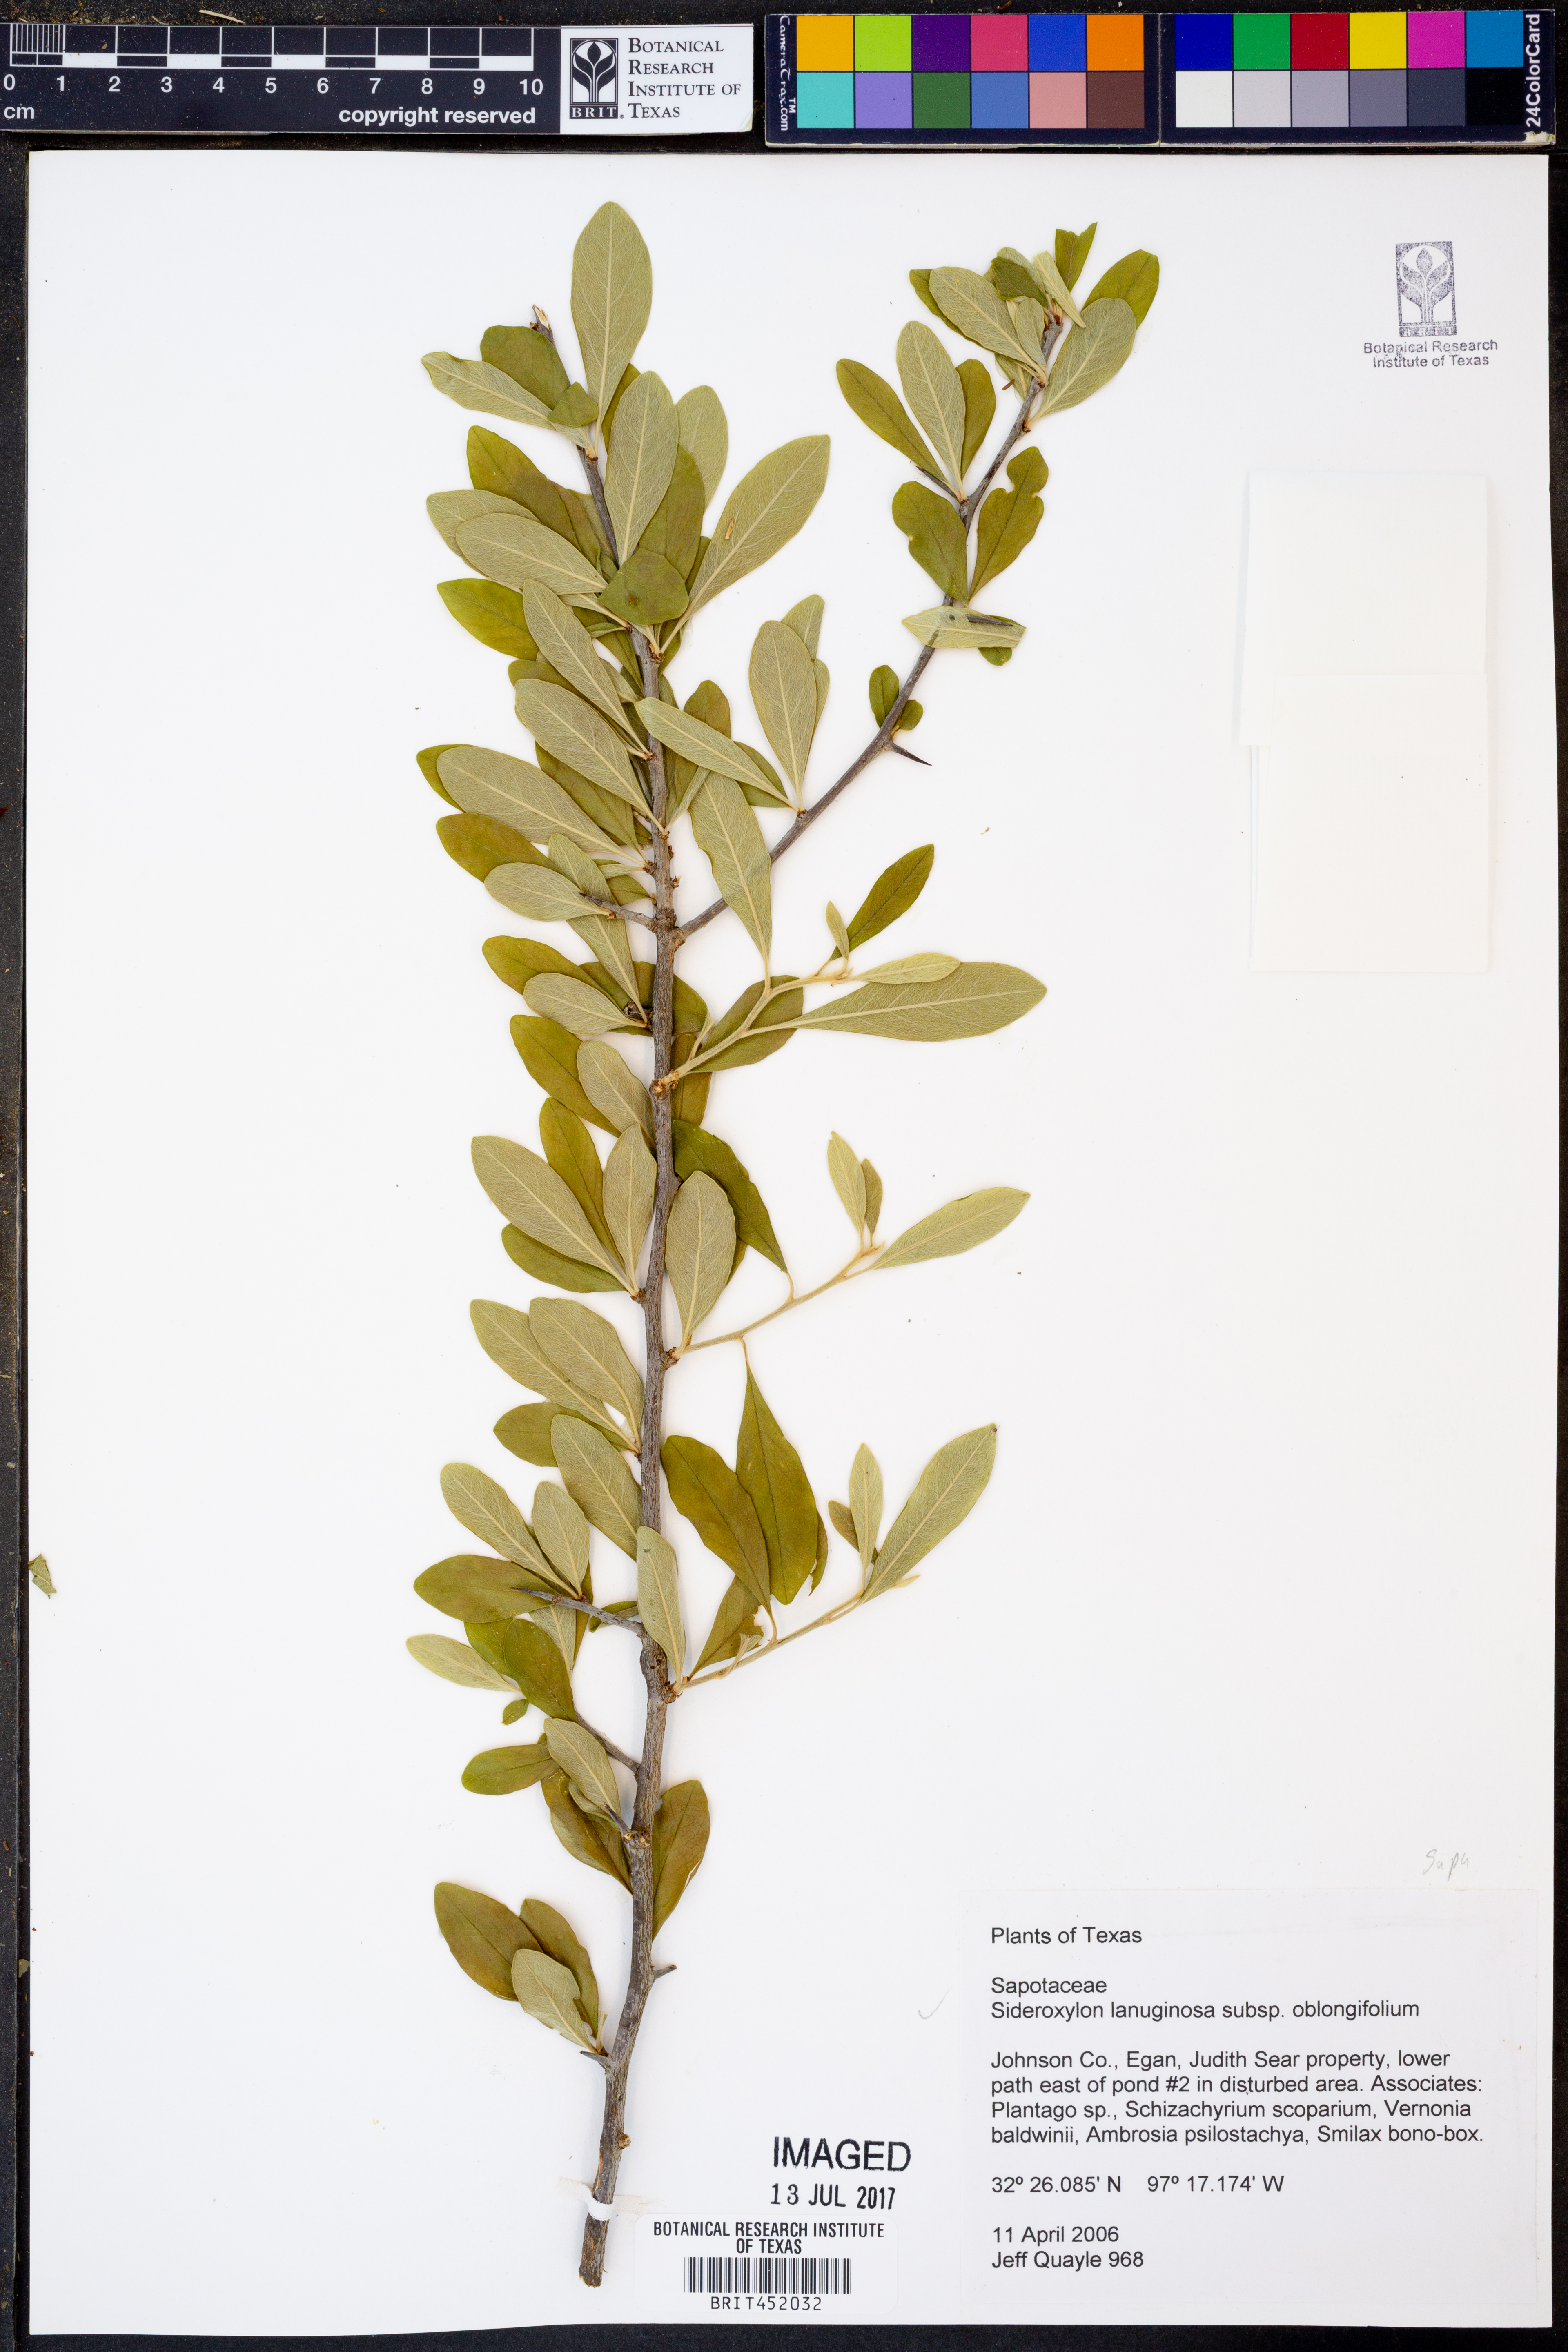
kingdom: Plantae
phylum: Tracheophyta
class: Magnoliopsida
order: Ericales
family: Sapotaceae
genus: Sideroxylon
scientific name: Sideroxylon lanuginosum
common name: Chittamwood
